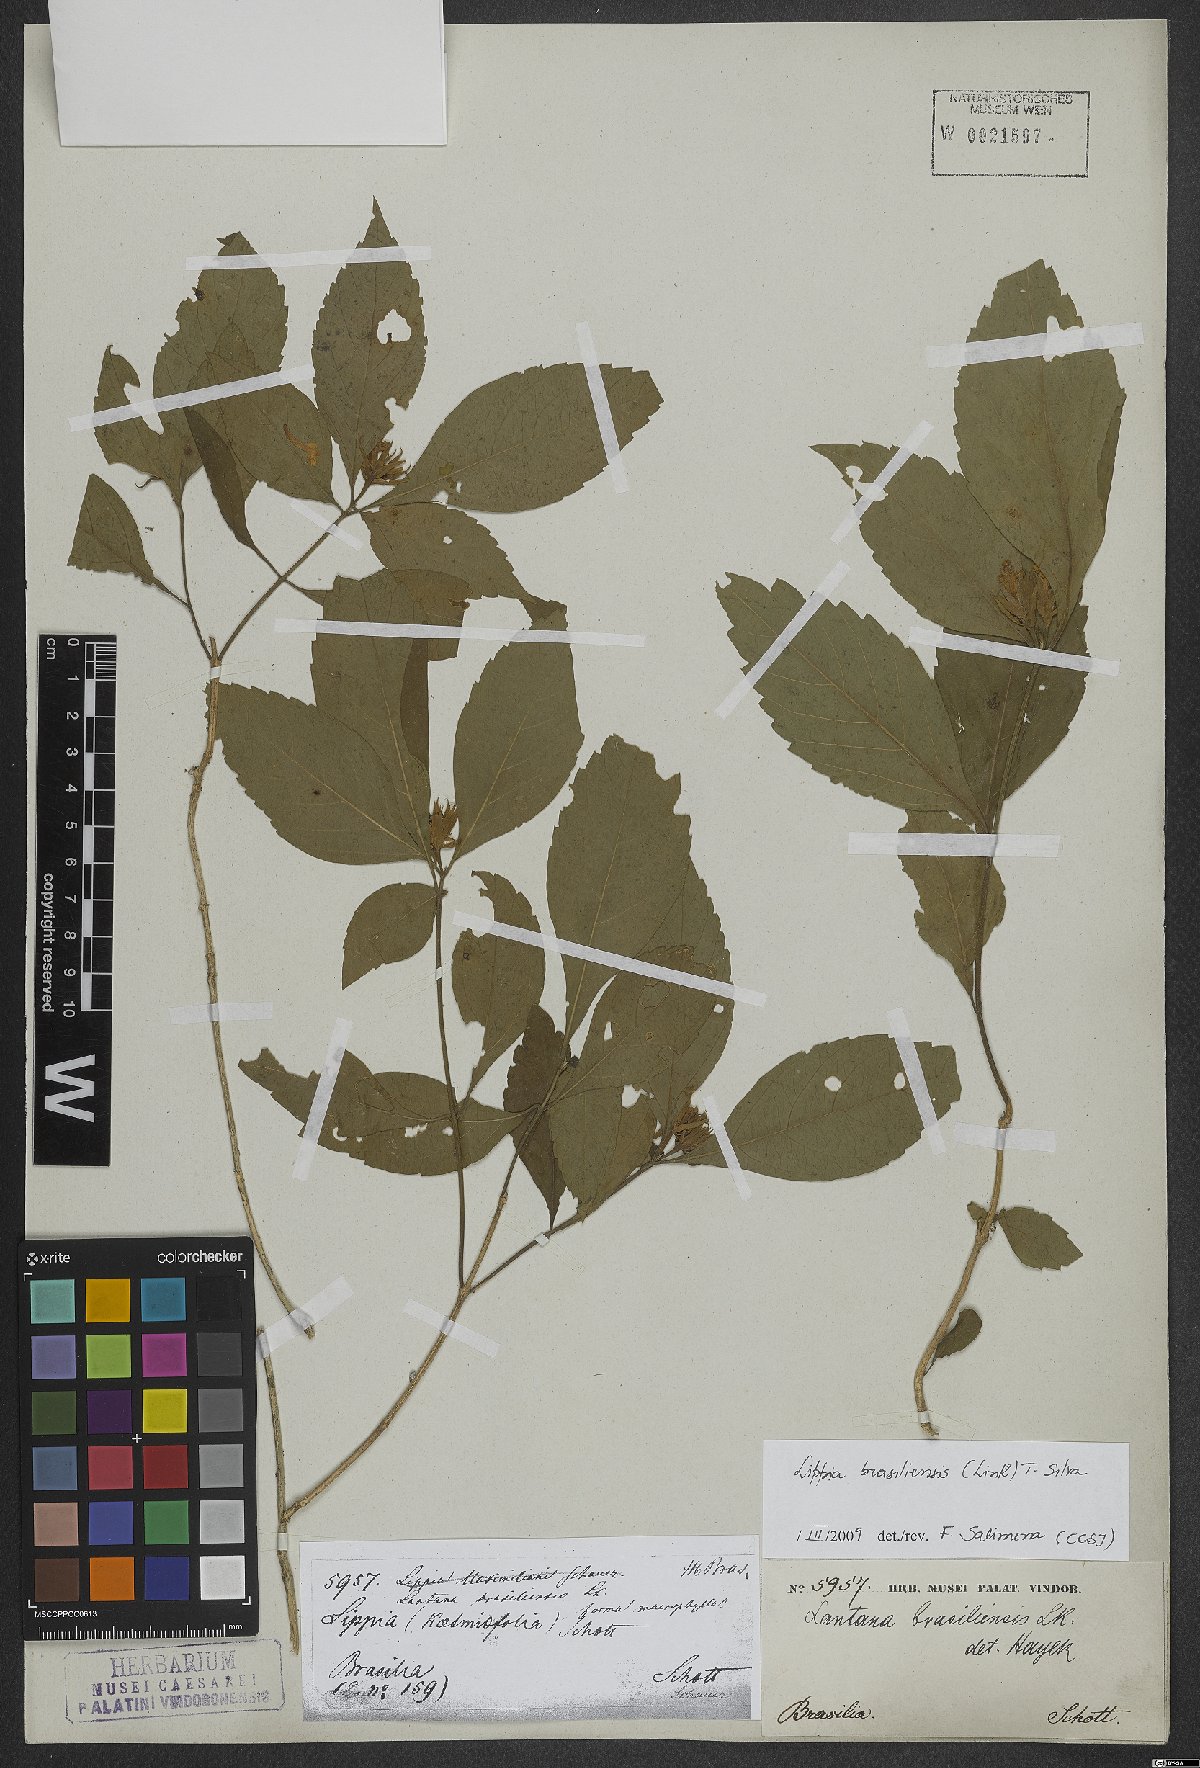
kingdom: Plantae
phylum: Tracheophyta
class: Magnoliopsida
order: Lamiales
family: Verbenaceae
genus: Lippia
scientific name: Lippia brasiliensis
